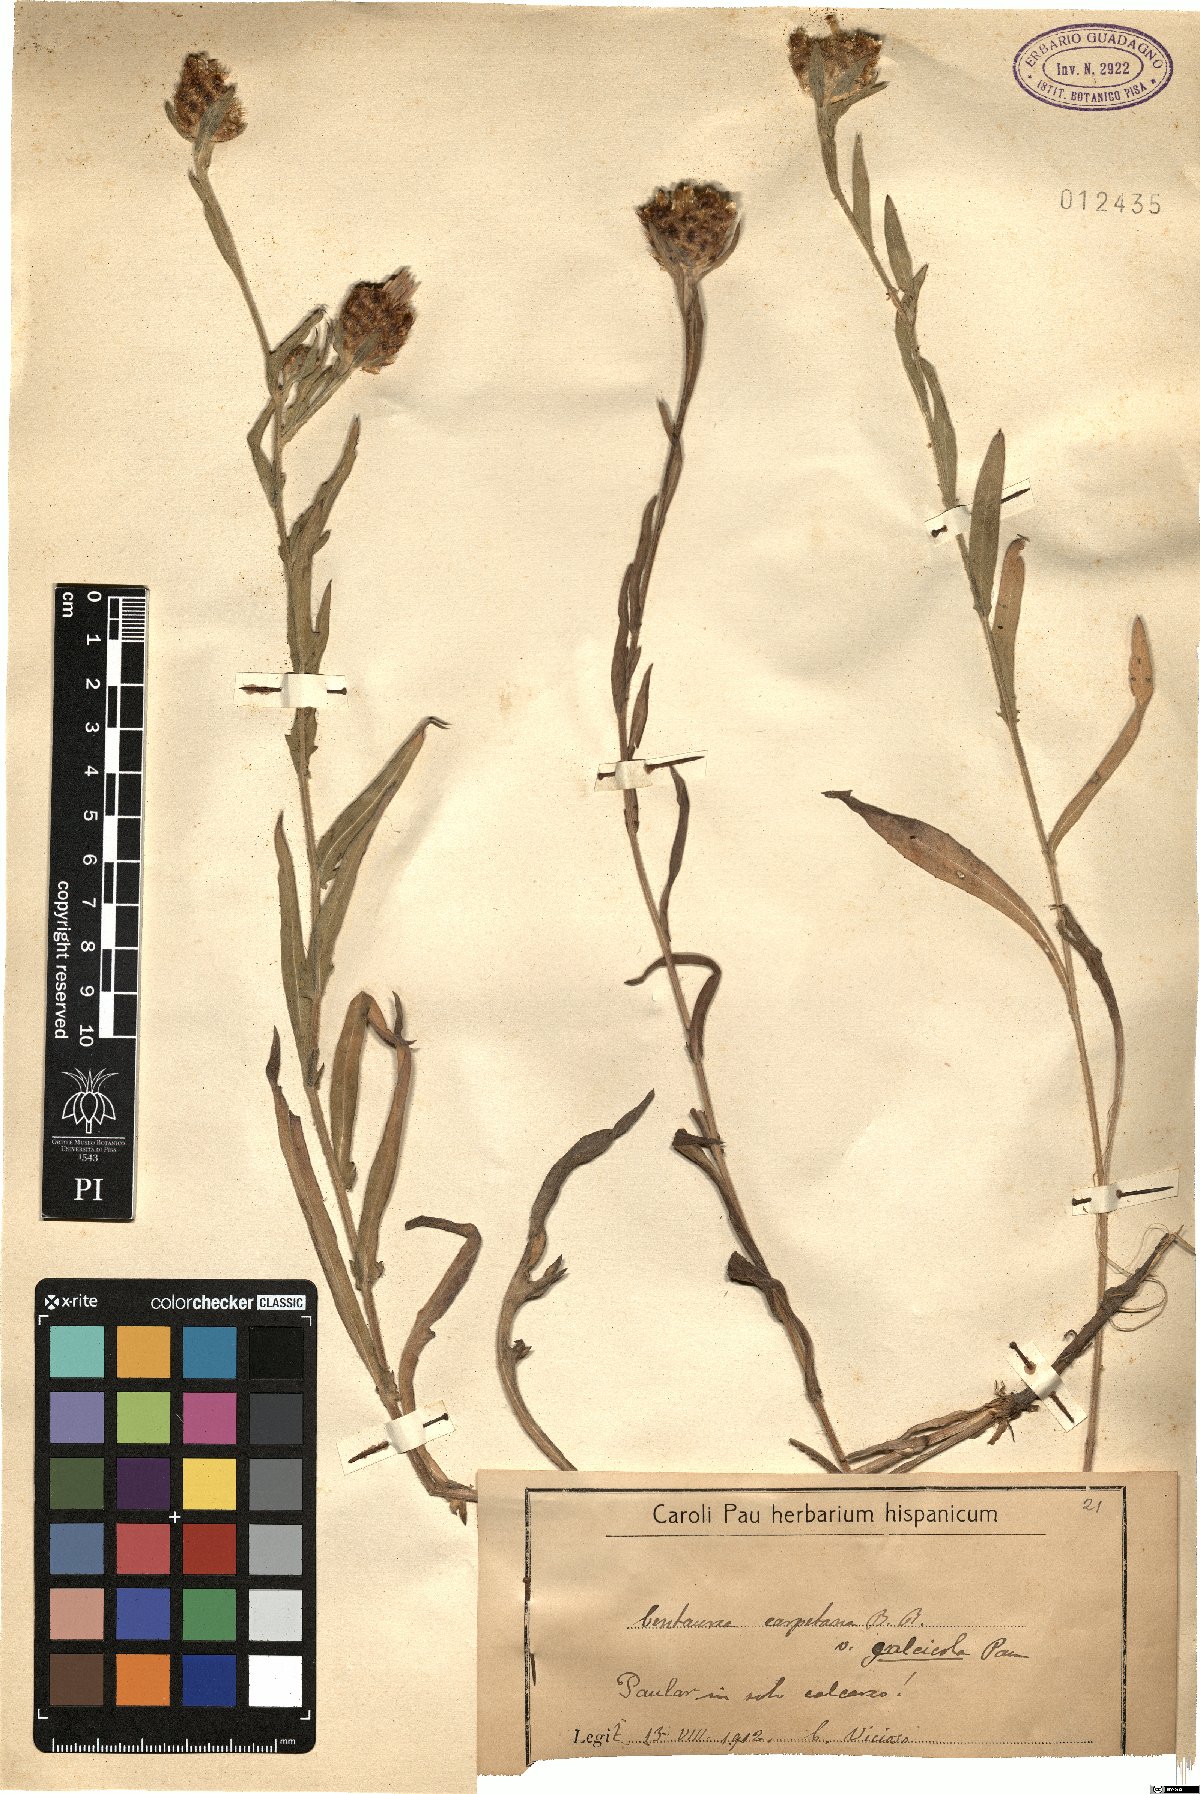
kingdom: Plantae
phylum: Tracheophyta
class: Magnoliopsida
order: Asterales
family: Asteraceae
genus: Centaurea
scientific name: Centaurea nigra
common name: Lesser knapweed
